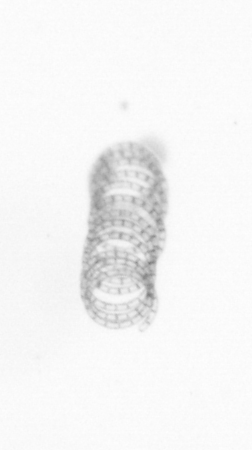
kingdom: Chromista
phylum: Ochrophyta
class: Bacillariophyceae
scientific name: Bacillariophyceae
